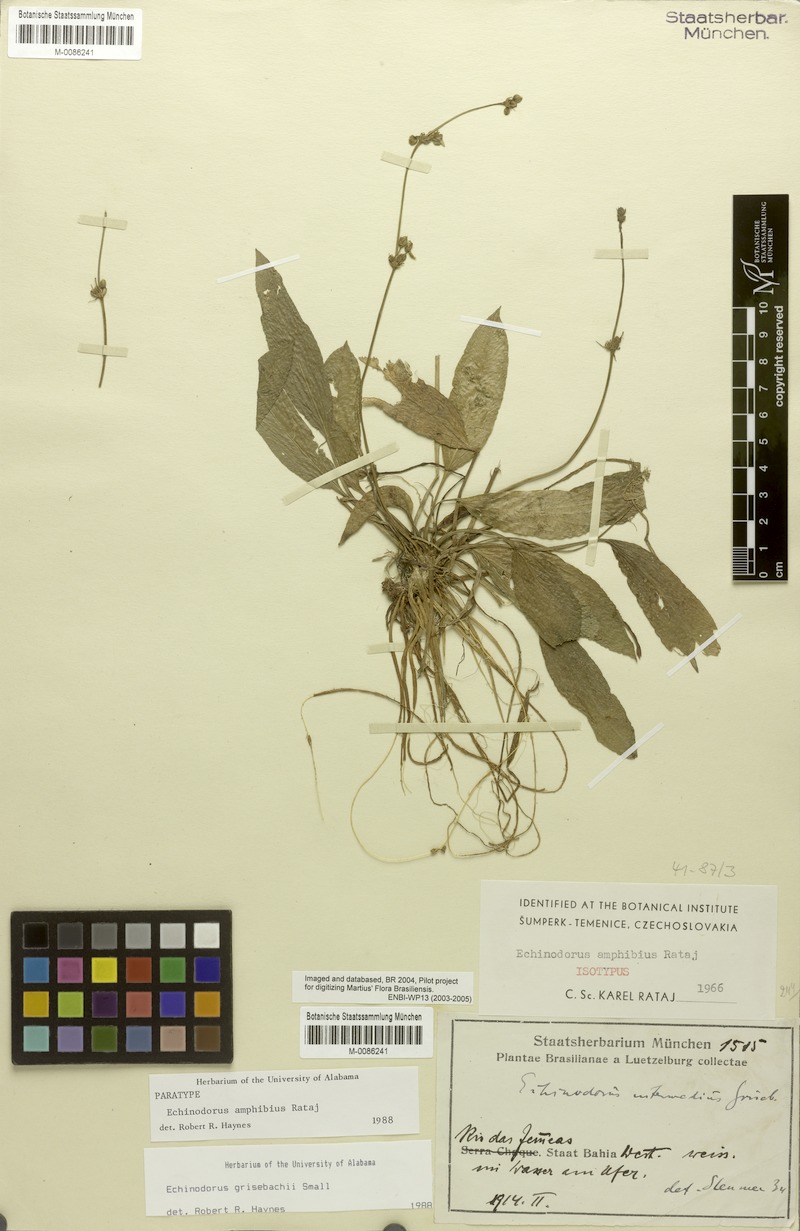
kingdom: Plantae
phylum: Tracheophyta
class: Liliopsida
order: Alismatales
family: Alismataceae
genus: Aquarius
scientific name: Aquarius grisebachii
